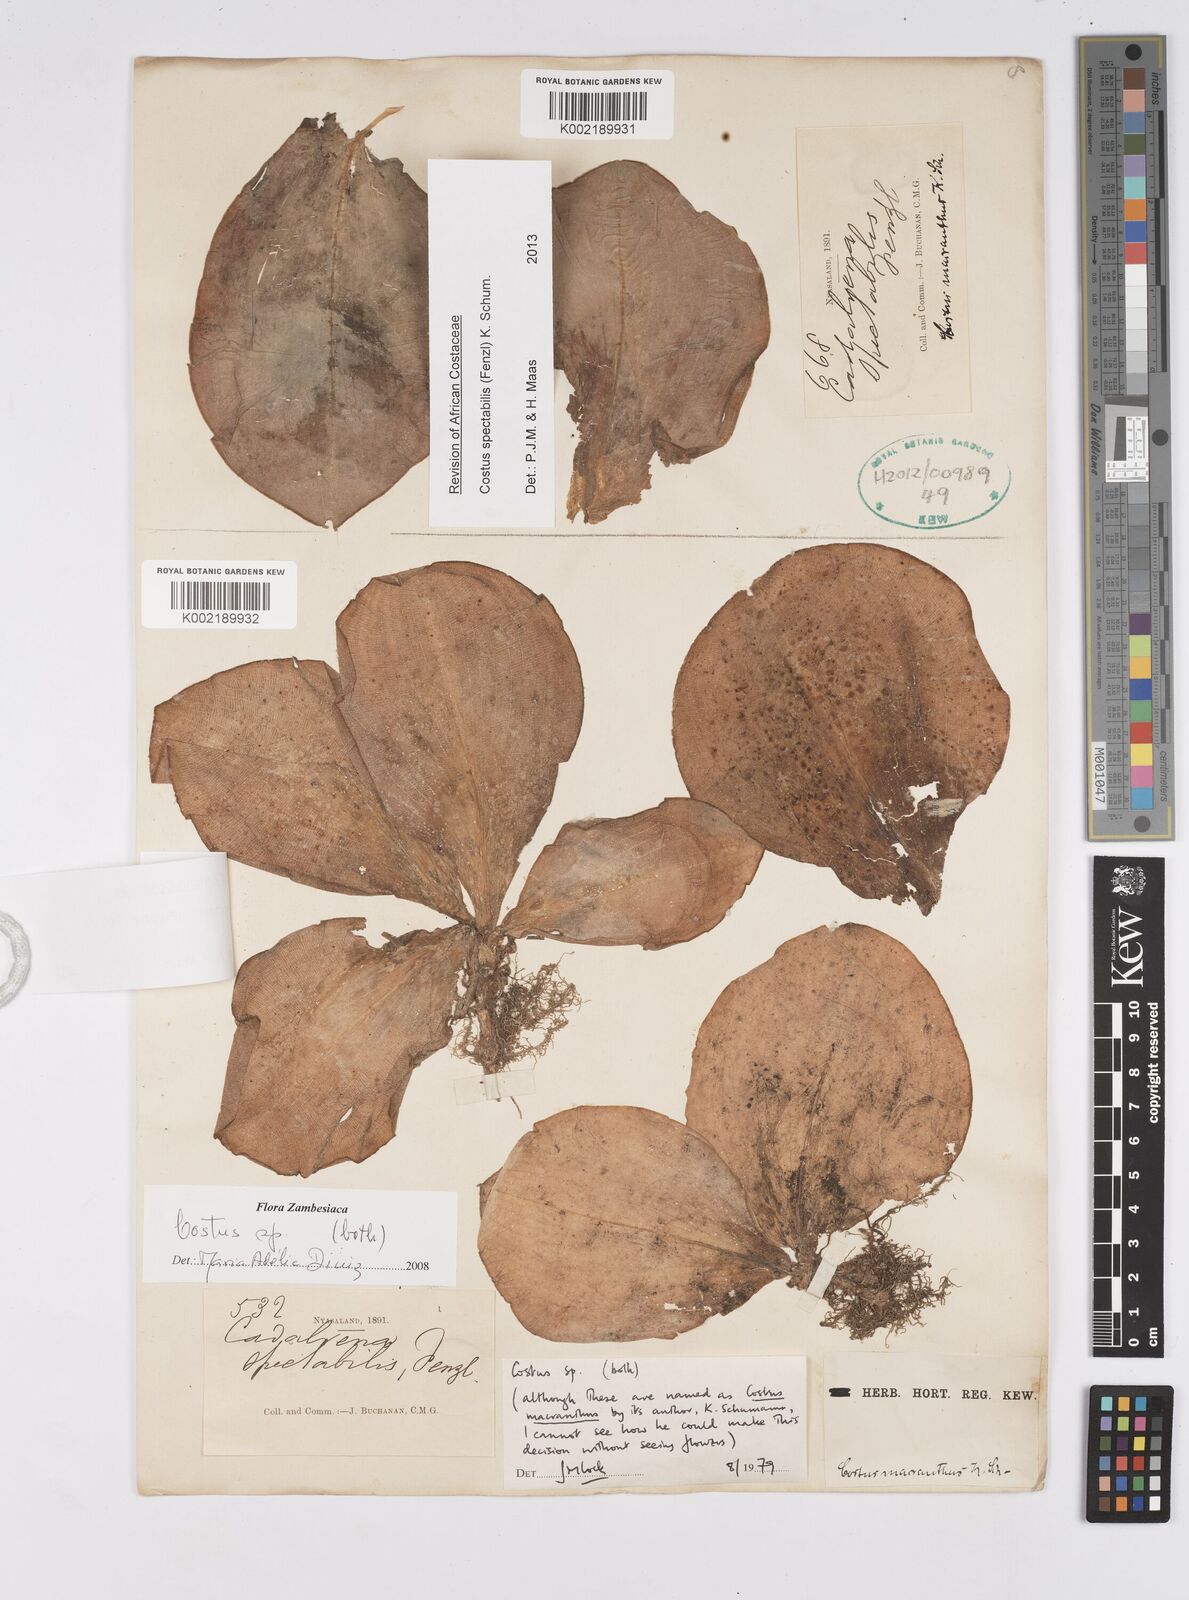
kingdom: Plantae
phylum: Tracheophyta
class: Liliopsida
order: Zingiberales
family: Costaceae
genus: Costus
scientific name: Costus spectabilis
